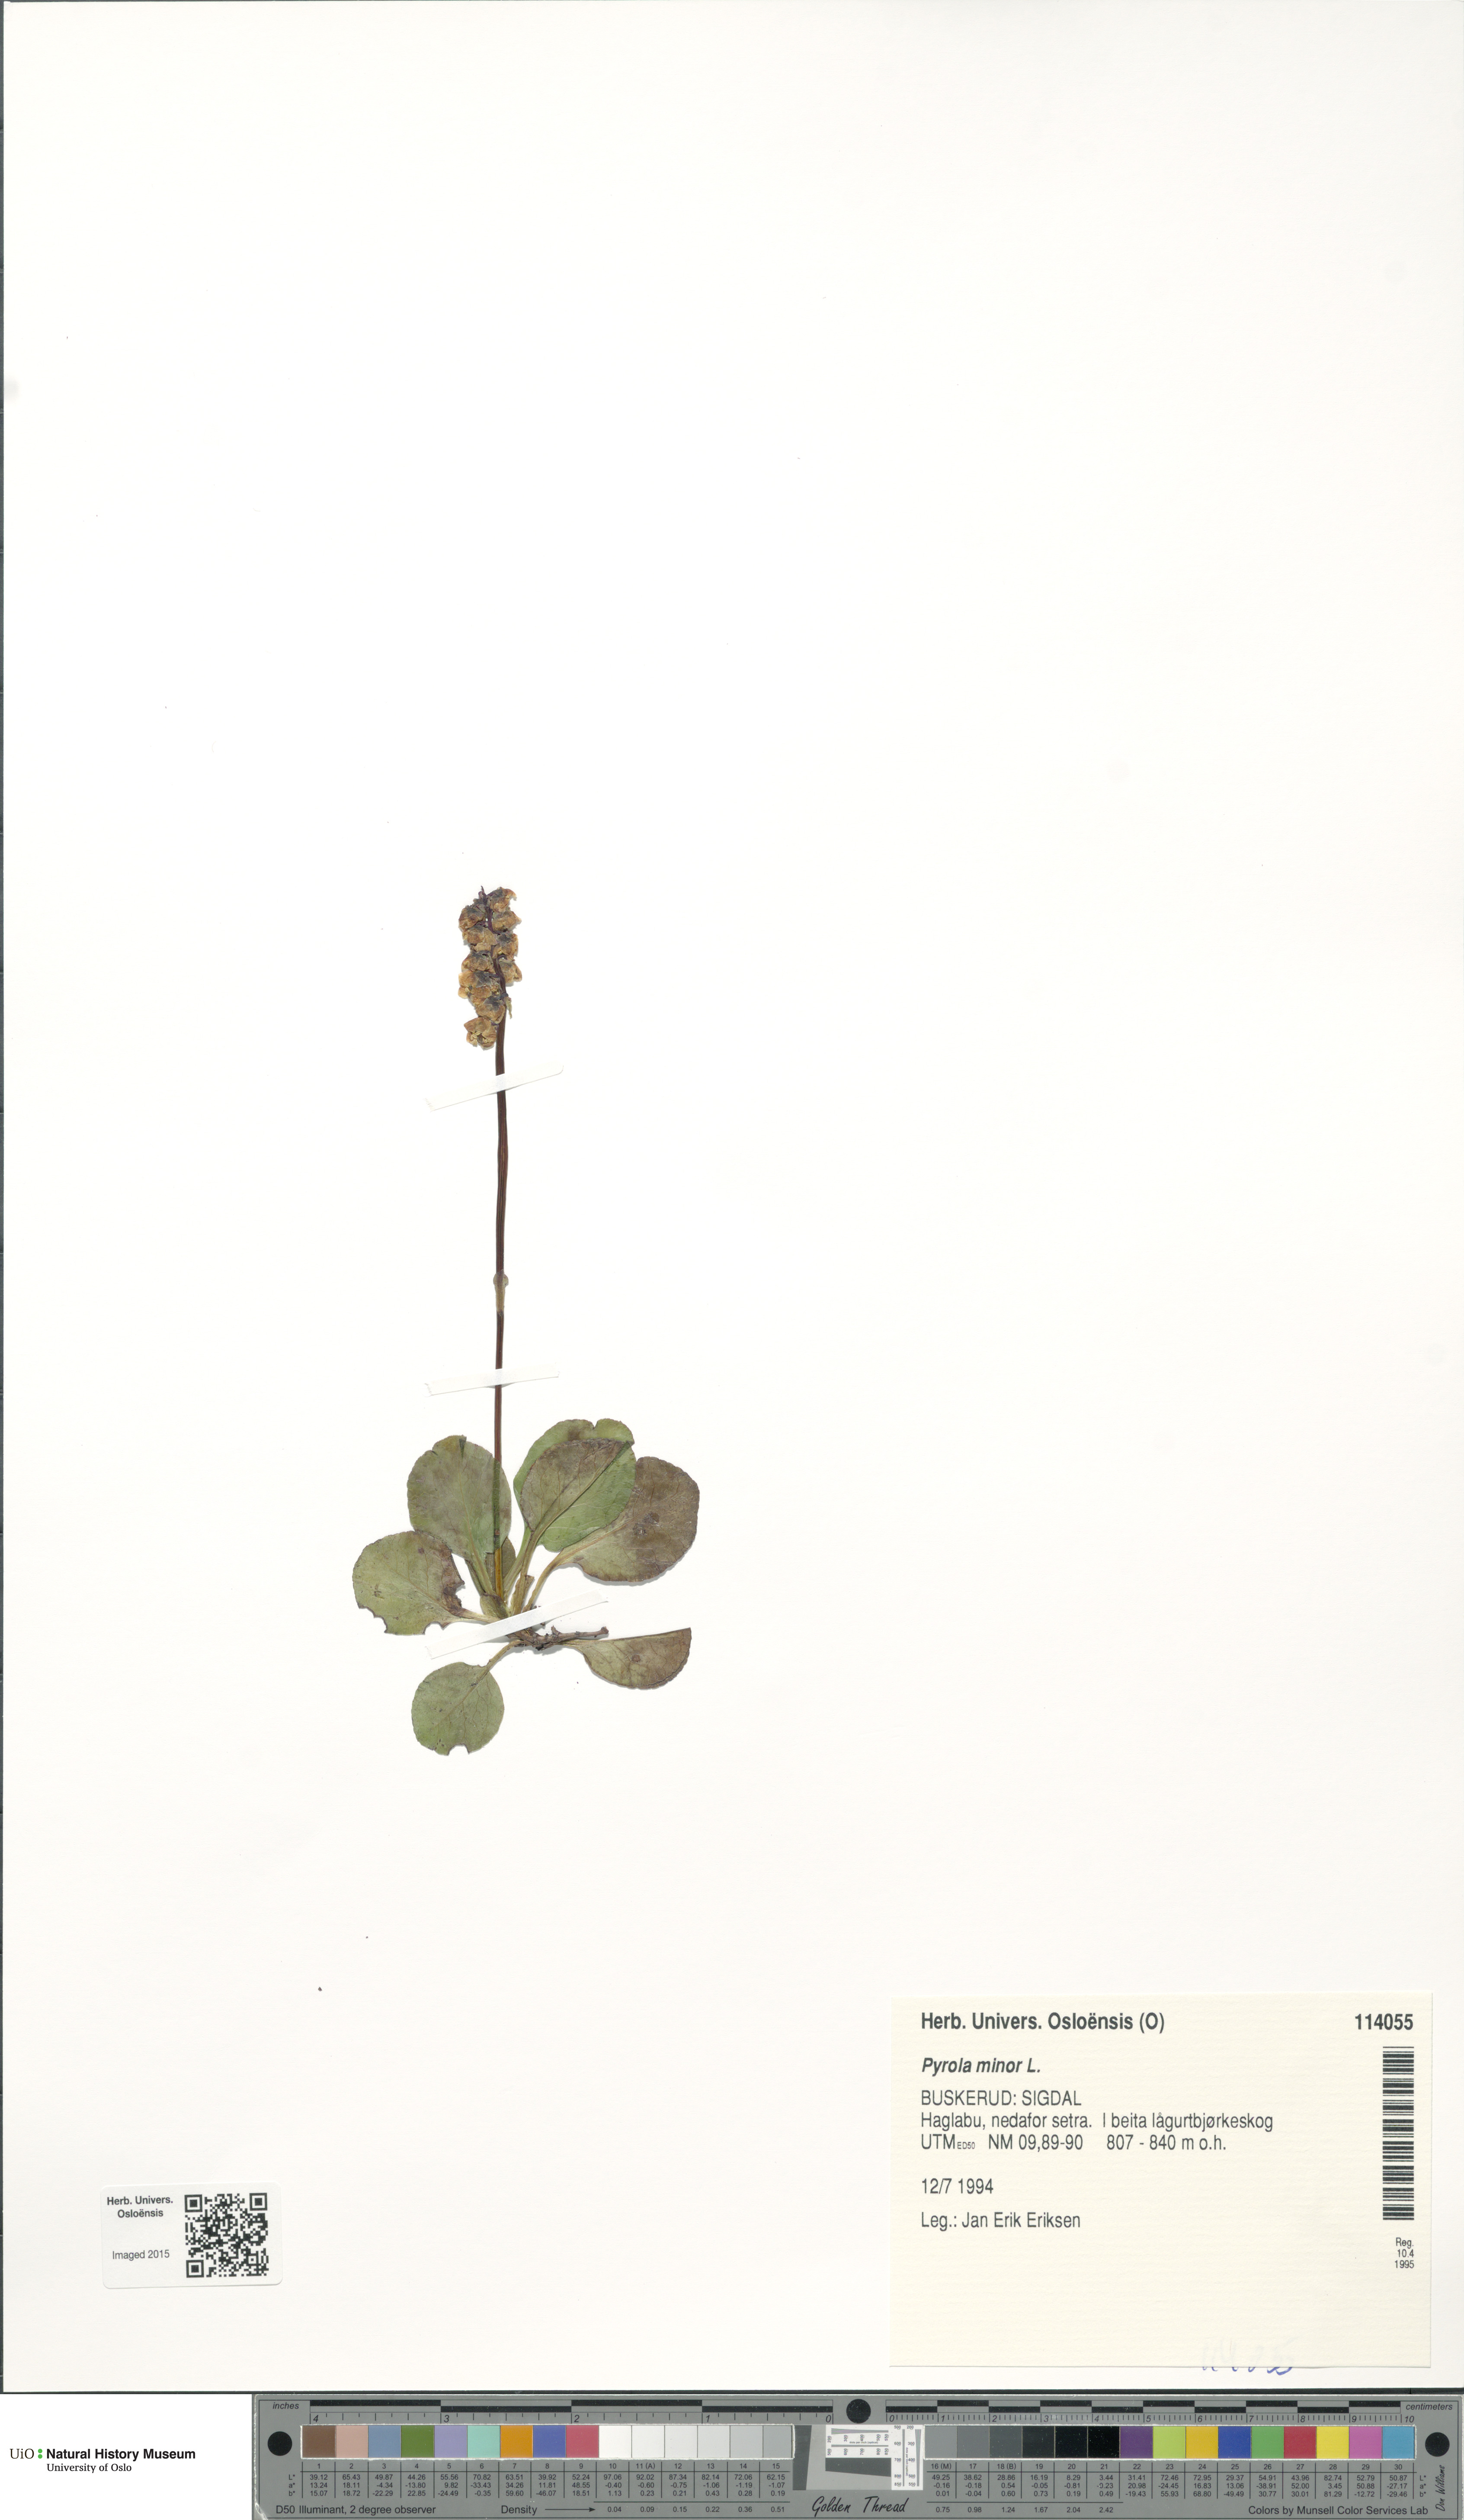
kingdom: Plantae
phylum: Tracheophyta
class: Magnoliopsida
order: Ericales
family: Ericaceae
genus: Pyrola
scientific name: Pyrola minor
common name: Common wintergreen
